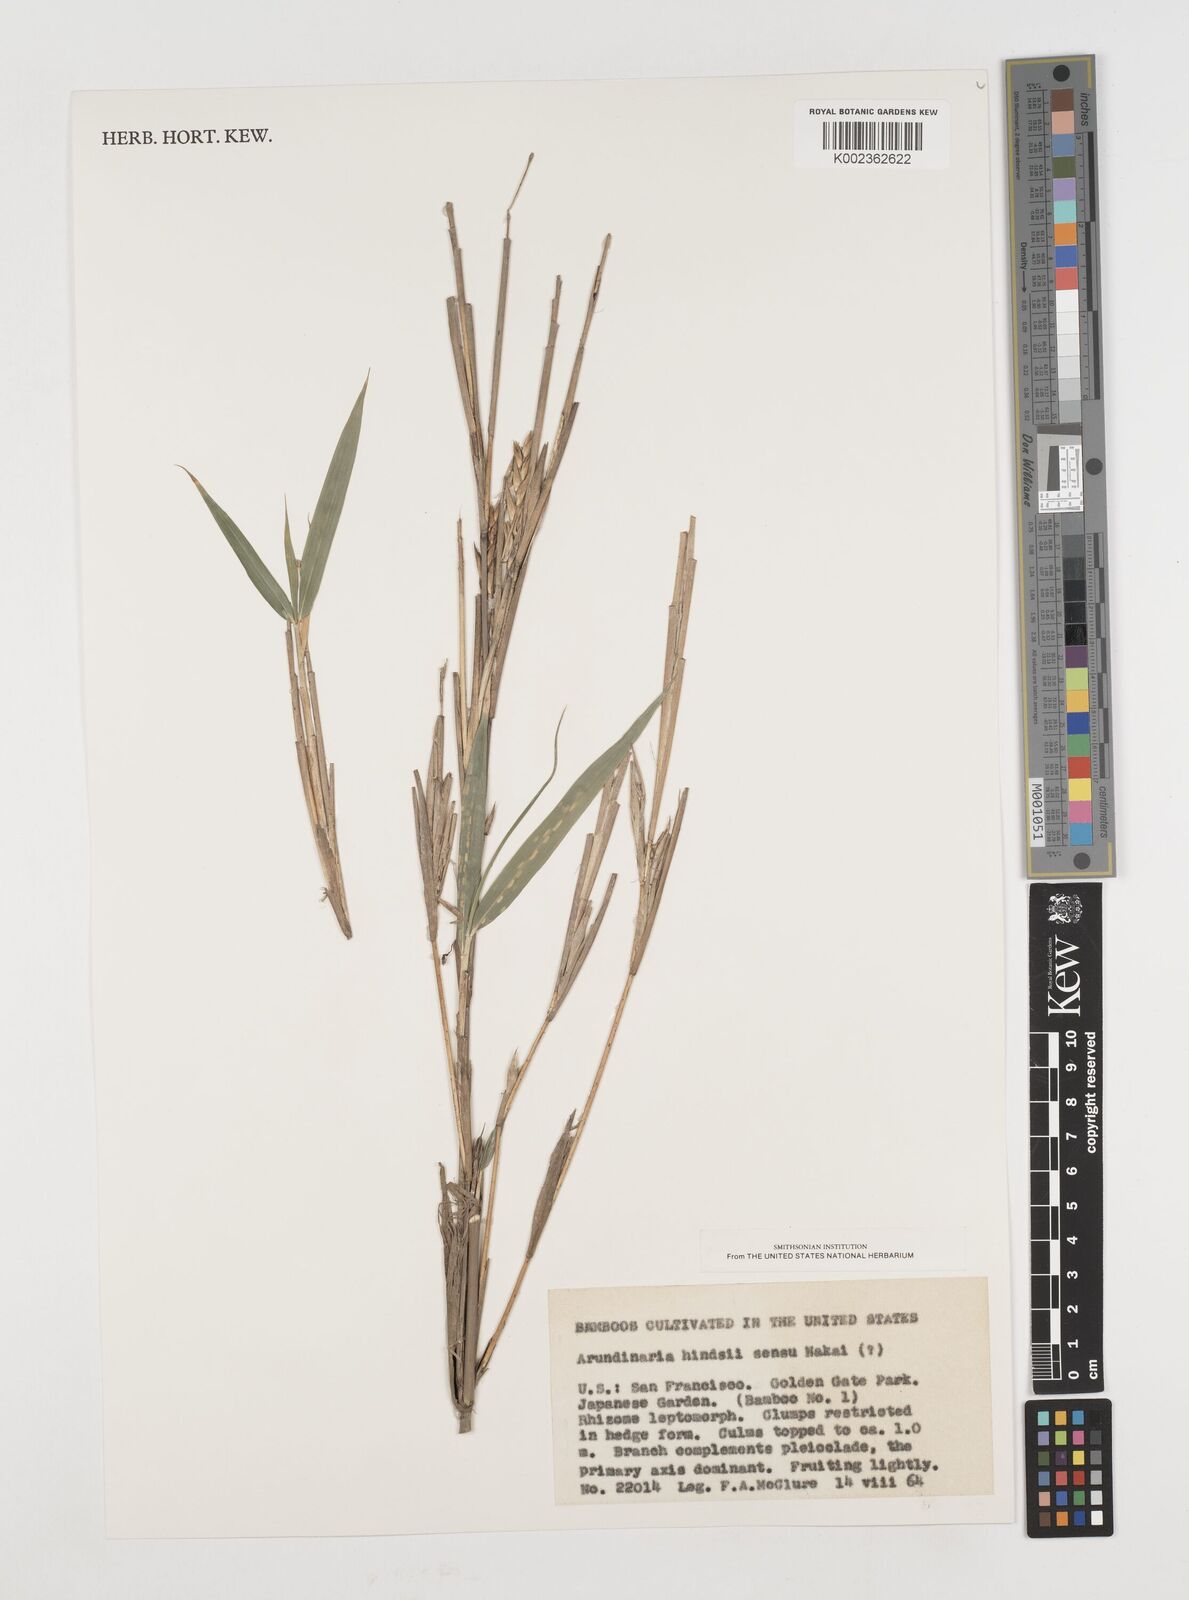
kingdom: Plantae
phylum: Tracheophyta
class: Liliopsida
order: Poales
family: Poaceae
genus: Pseudosasa
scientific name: Pseudosasa hindsii
